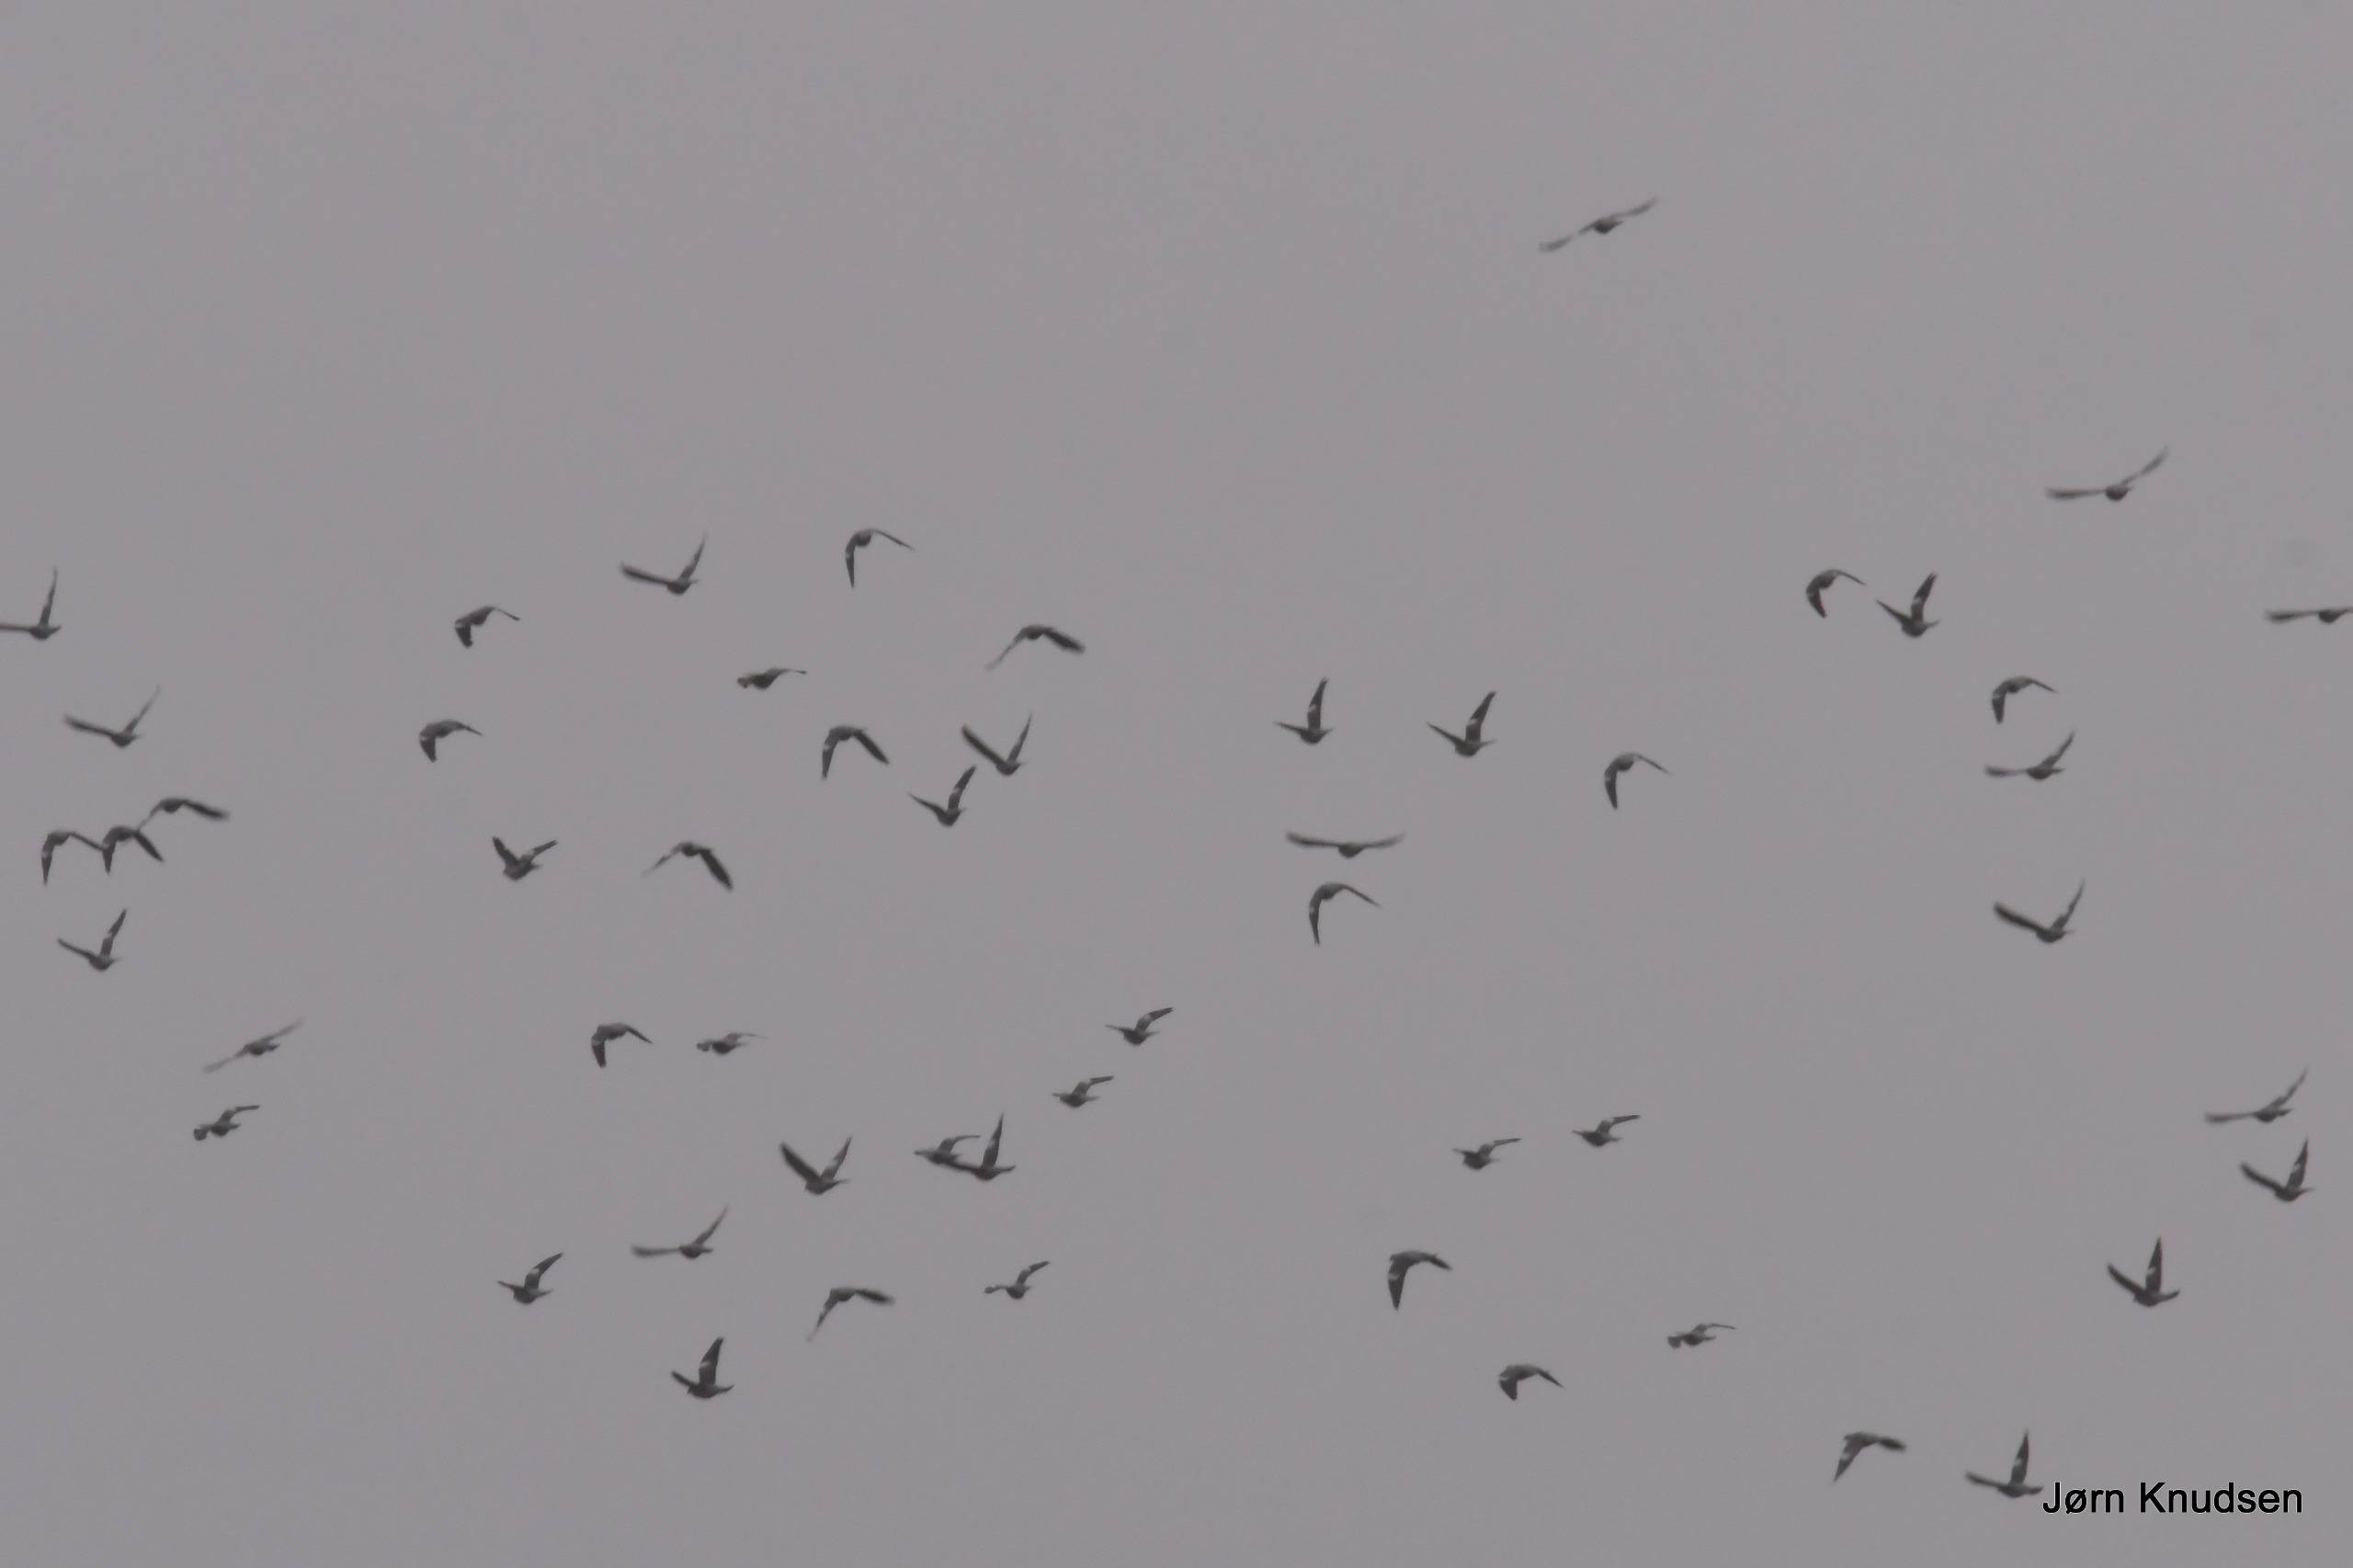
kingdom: Animalia
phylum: Chordata
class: Aves
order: Columbiformes
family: Columbidae
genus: Columba
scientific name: Columba palumbus
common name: Ringdue
